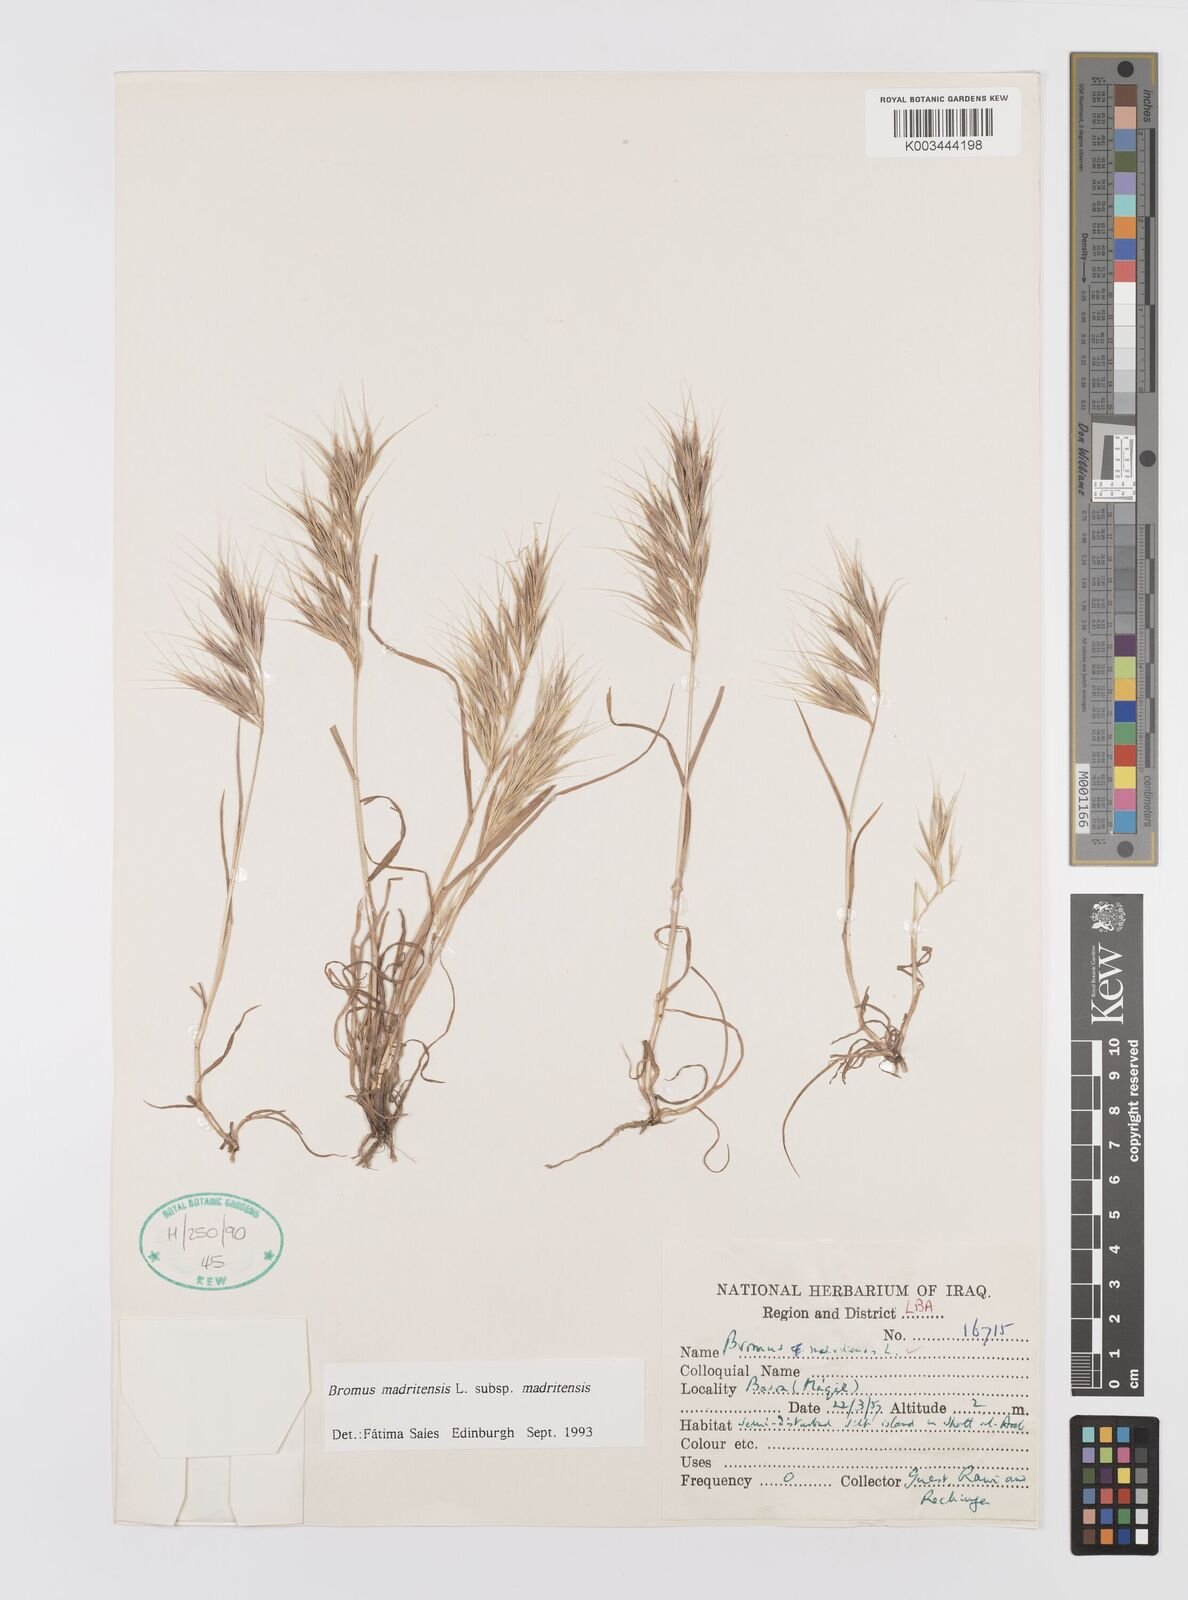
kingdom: Plantae
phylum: Tracheophyta
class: Liliopsida
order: Poales
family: Poaceae
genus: Bromus
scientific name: Bromus madritensis
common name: Compact brome
